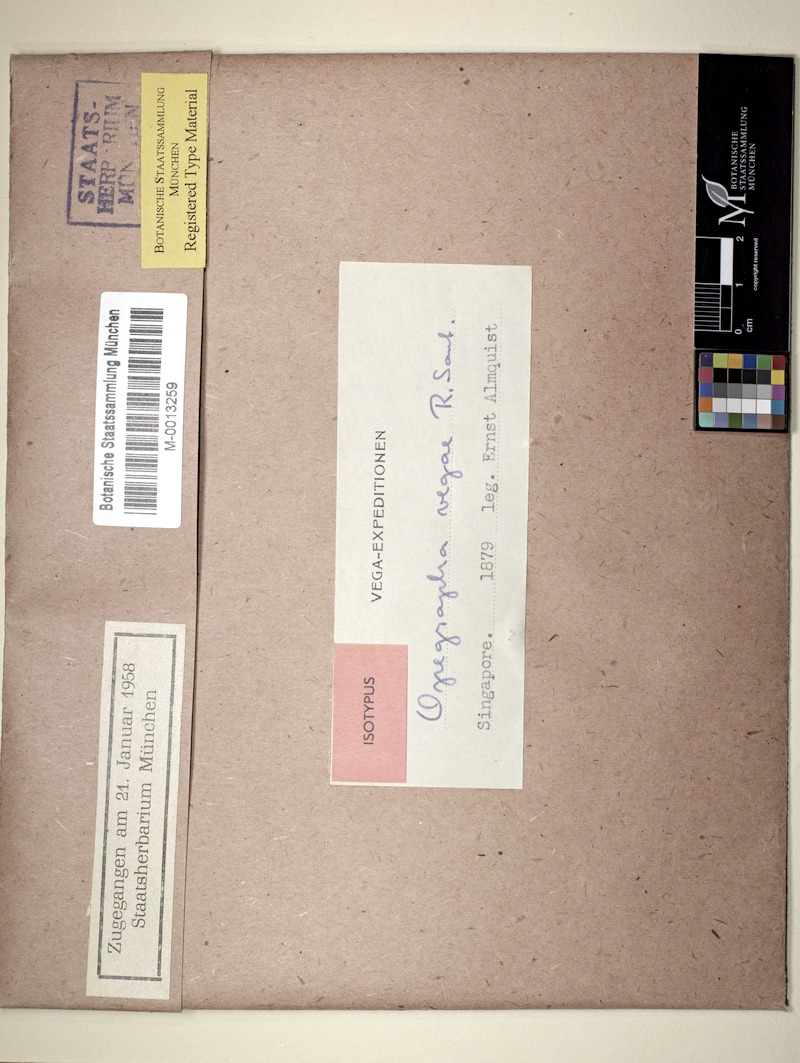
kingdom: Fungi
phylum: Ascomycota
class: Arthoniomycetes
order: Arthoniales
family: Opegraphaceae
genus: Fouragea
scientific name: Fouragea vegae
